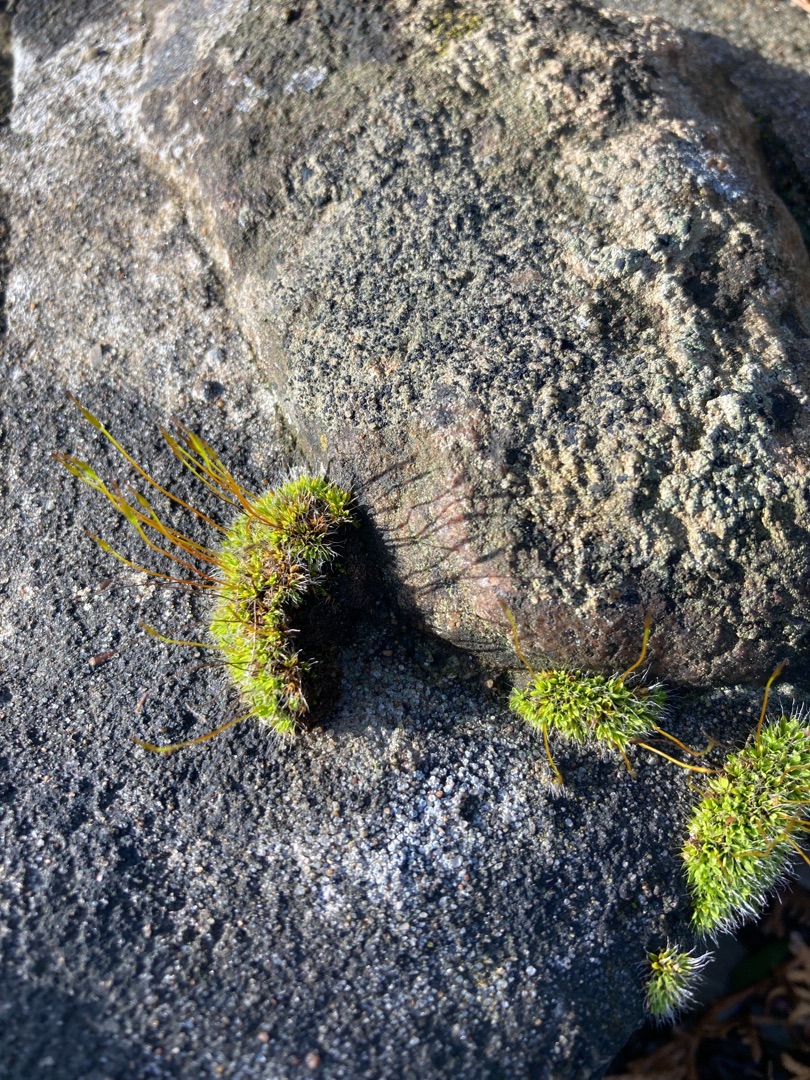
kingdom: Plantae
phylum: Bryophyta
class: Bryopsida
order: Pottiales
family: Pottiaceae
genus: Tortula
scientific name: Tortula muralis
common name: Mur-snotand
